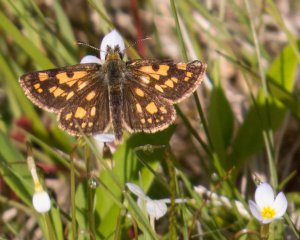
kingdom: Animalia
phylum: Arthropoda
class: Insecta
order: Lepidoptera
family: Hesperiidae
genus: Carterocephalus
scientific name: Carterocephalus palaemon
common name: Chequered Skipper
